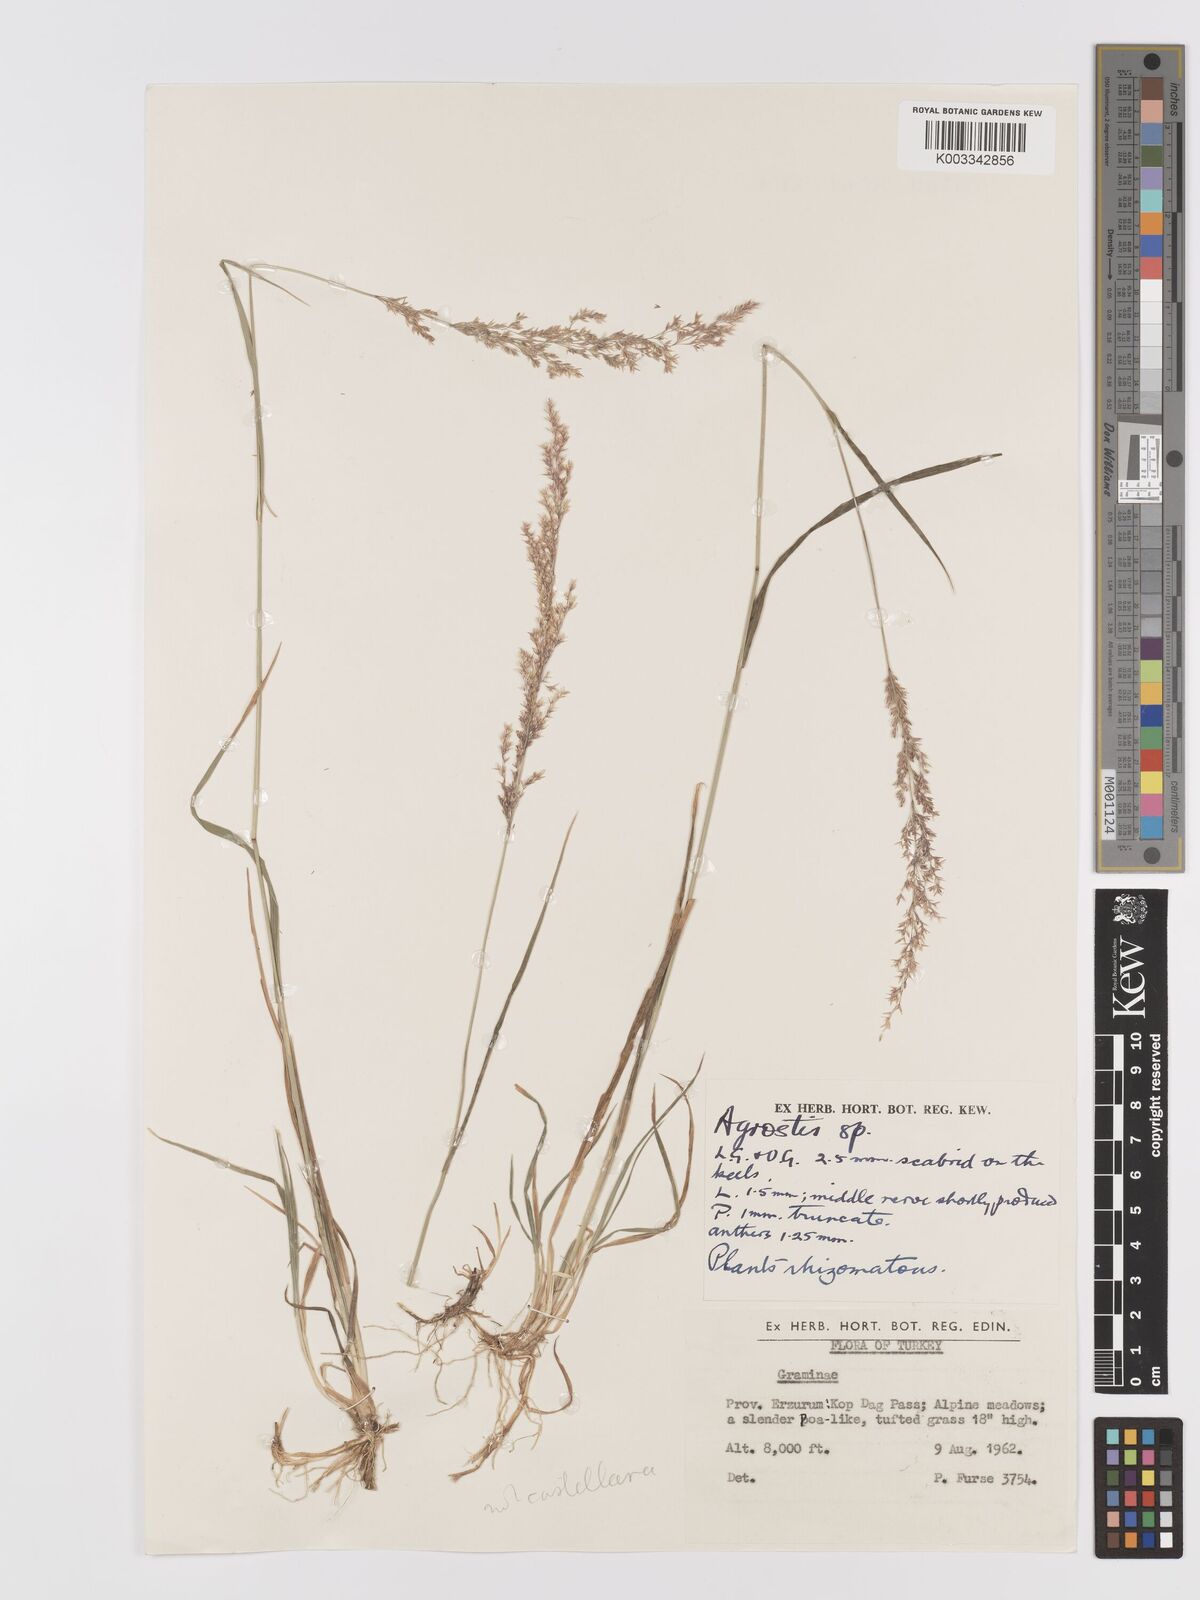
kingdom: Plantae
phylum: Tracheophyta
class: Liliopsida
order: Poales
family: Poaceae
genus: Agrostis
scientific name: Agrostis
